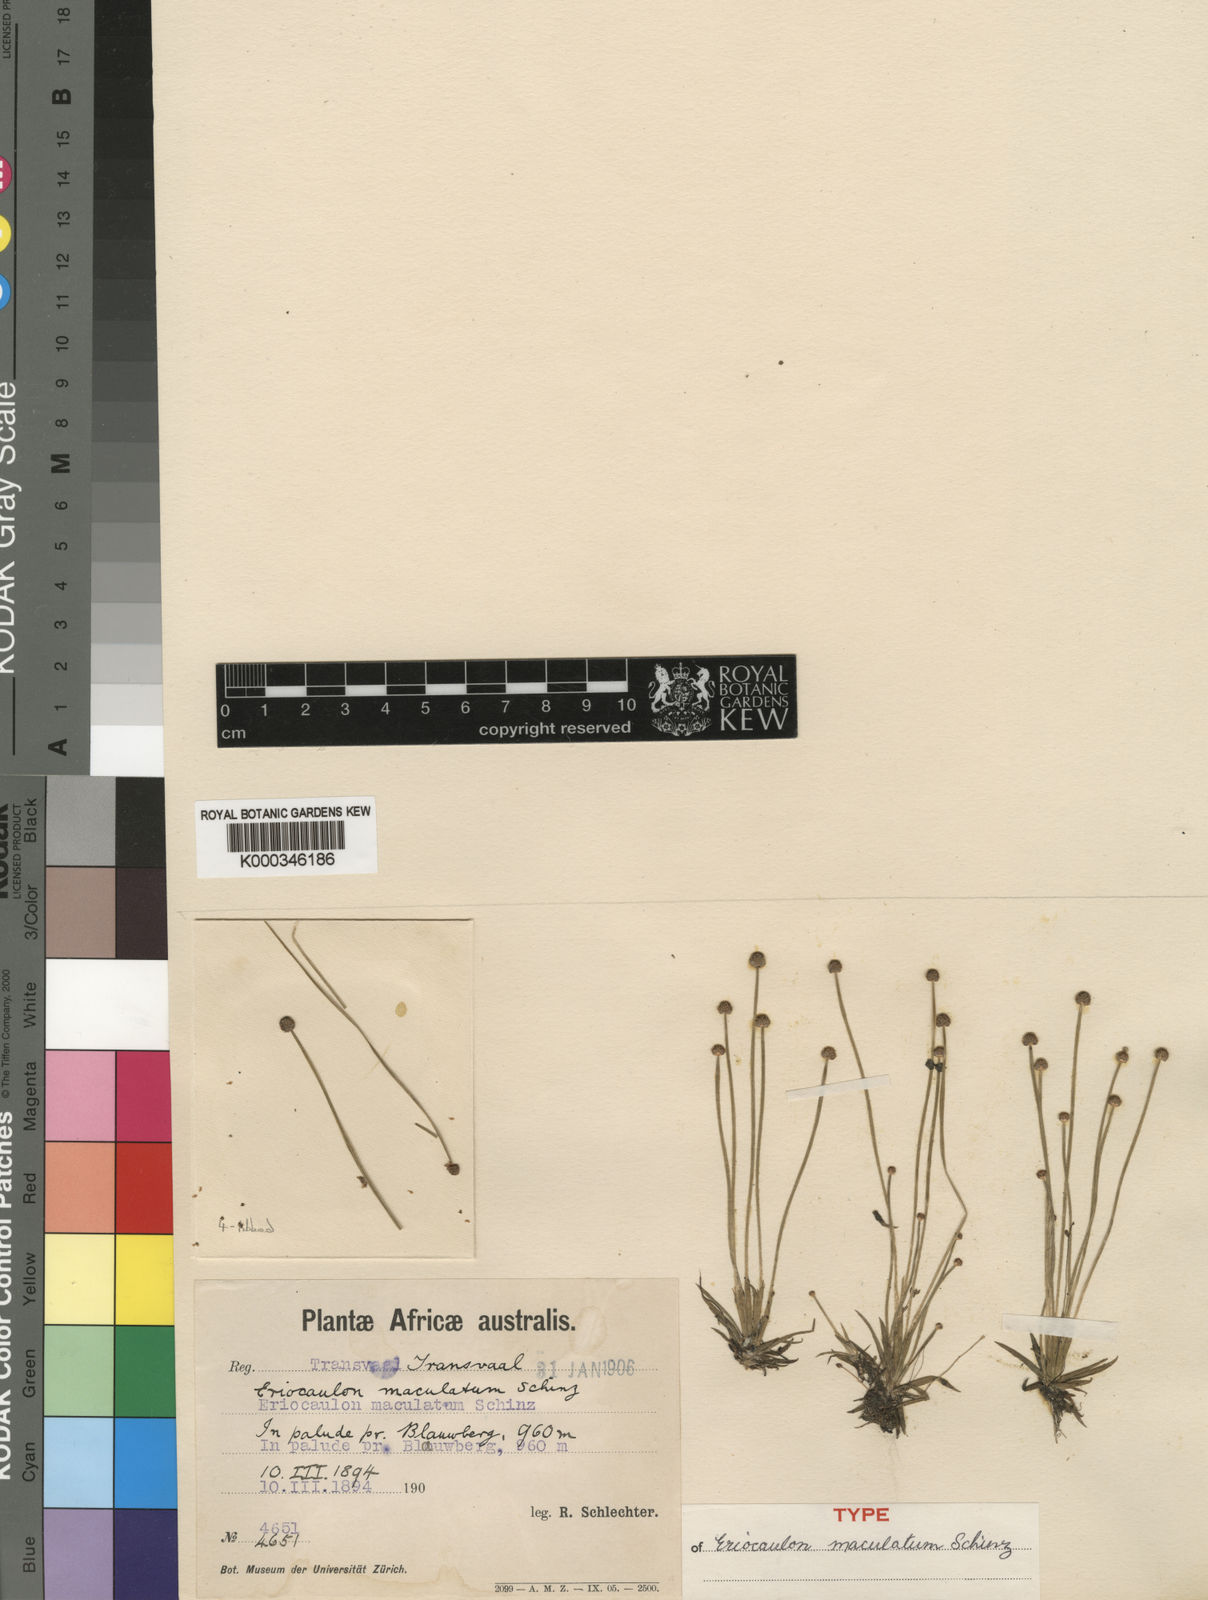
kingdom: Plantae
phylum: Tracheophyta
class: Liliopsida
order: Poales
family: Eriocaulaceae
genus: Eriocaulon
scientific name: Eriocaulon maculatum
